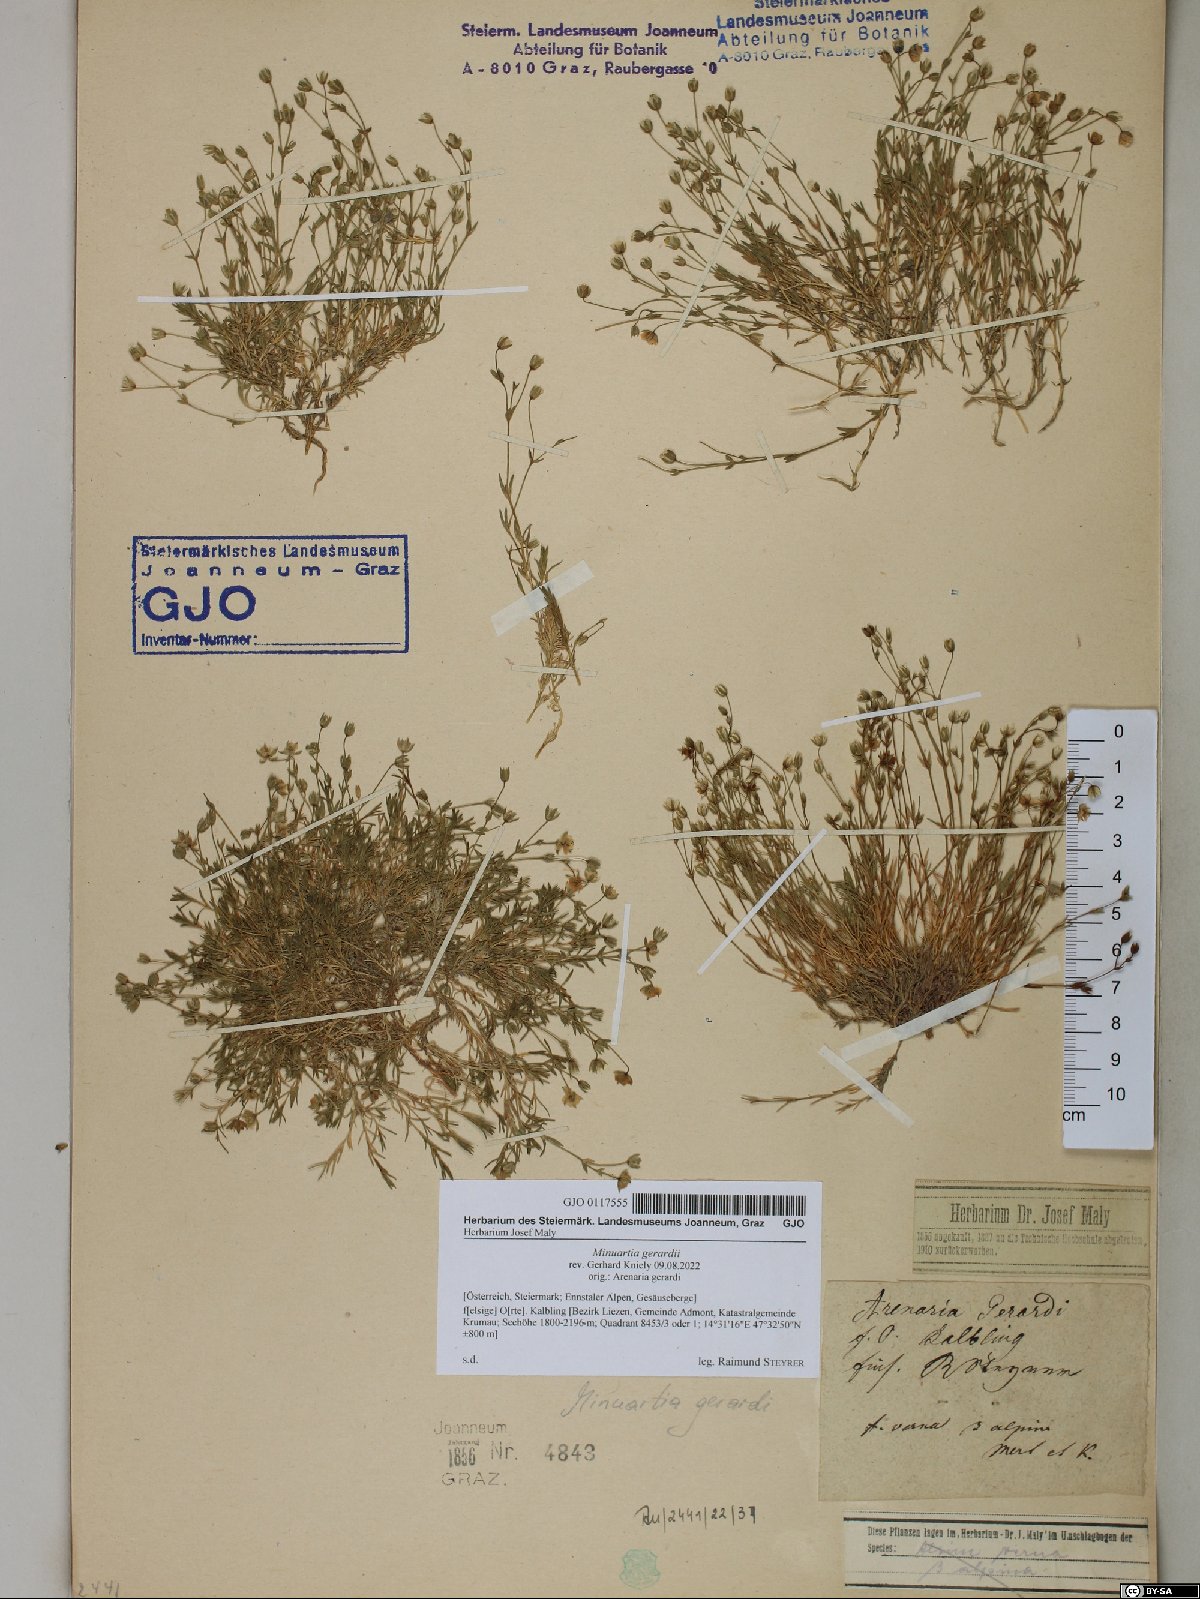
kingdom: Plantae
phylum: Tracheophyta
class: Magnoliopsida
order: Caryophyllales
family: Caryophyllaceae
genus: Sabulina
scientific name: Sabulina verna
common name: Spring sandwort
